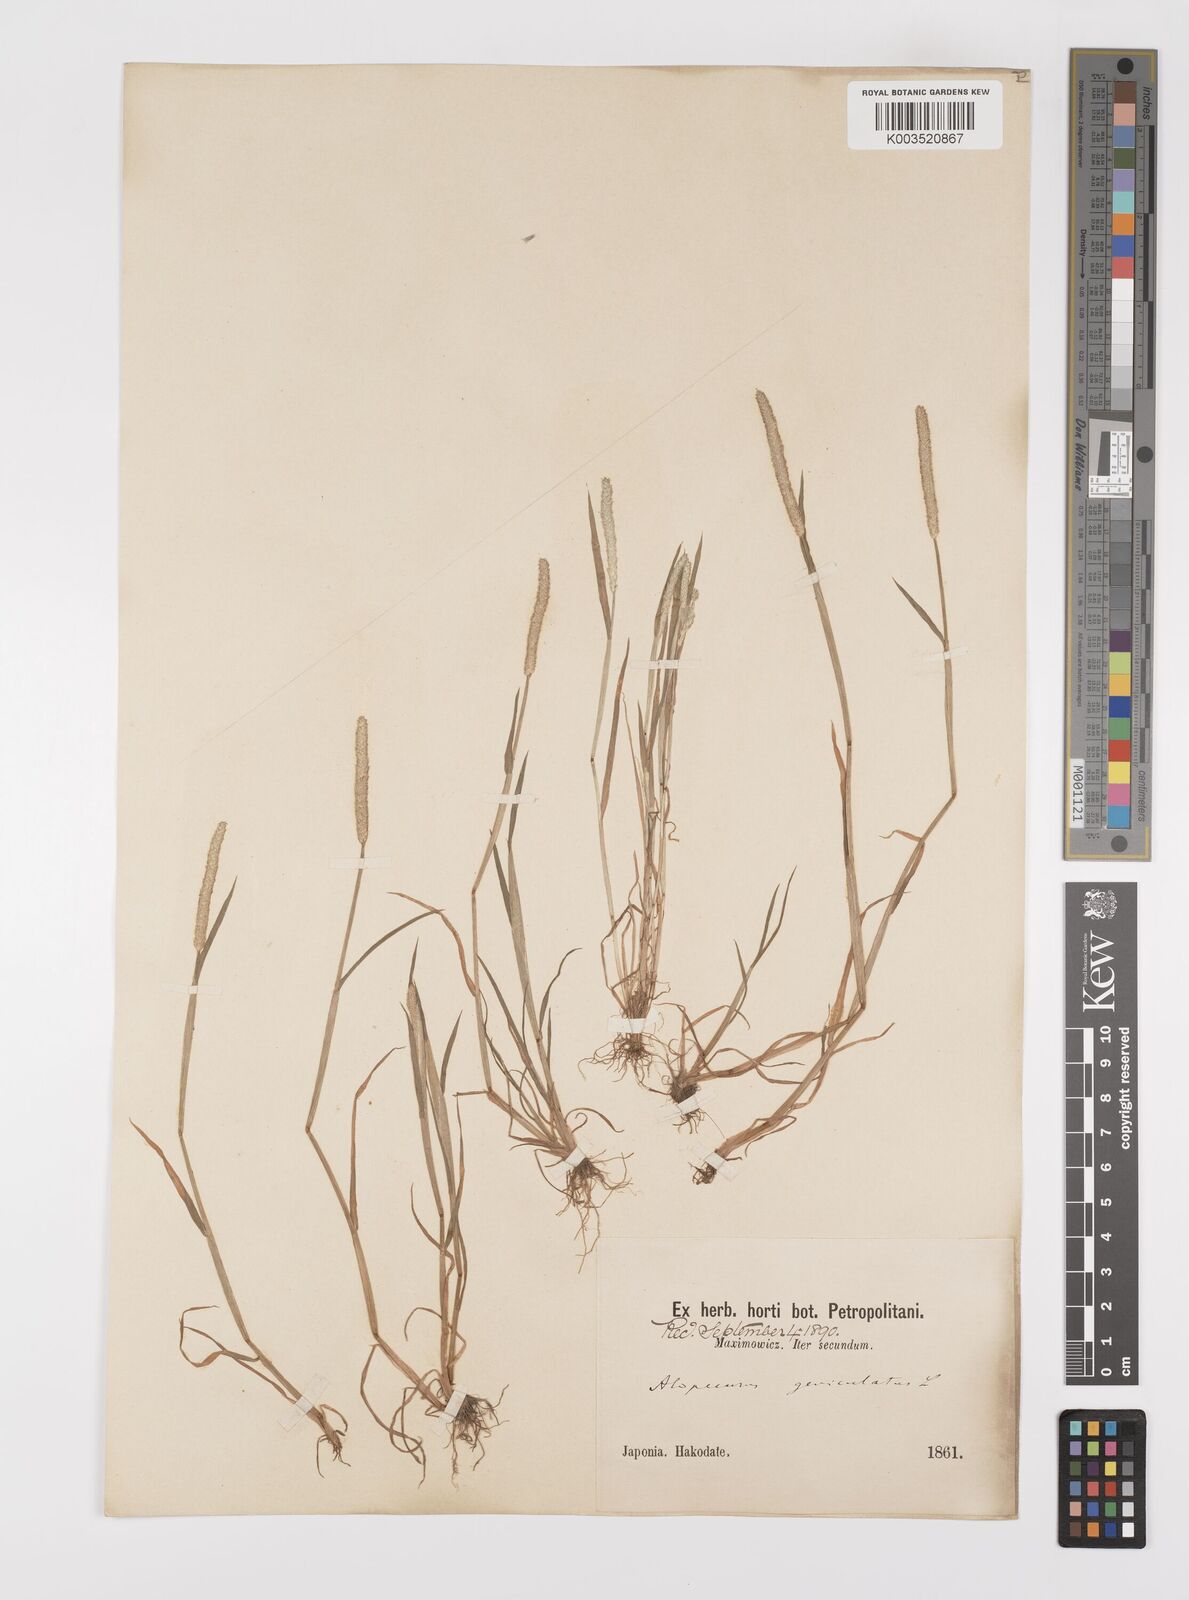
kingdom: Plantae
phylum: Tracheophyta
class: Liliopsida
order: Poales
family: Poaceae
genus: Alopecurus
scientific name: Alopecurus aequalis
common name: Orange foxtail
